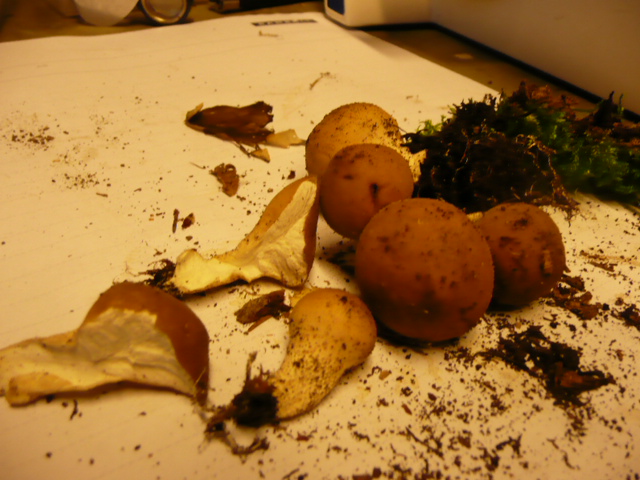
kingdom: Fungi
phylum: Basidiomycota
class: Agaricomycetes
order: Agaricales
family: Lycoperdaceae
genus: Apioperdon
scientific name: Apioperdon pyriforme
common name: pære-støvbold
